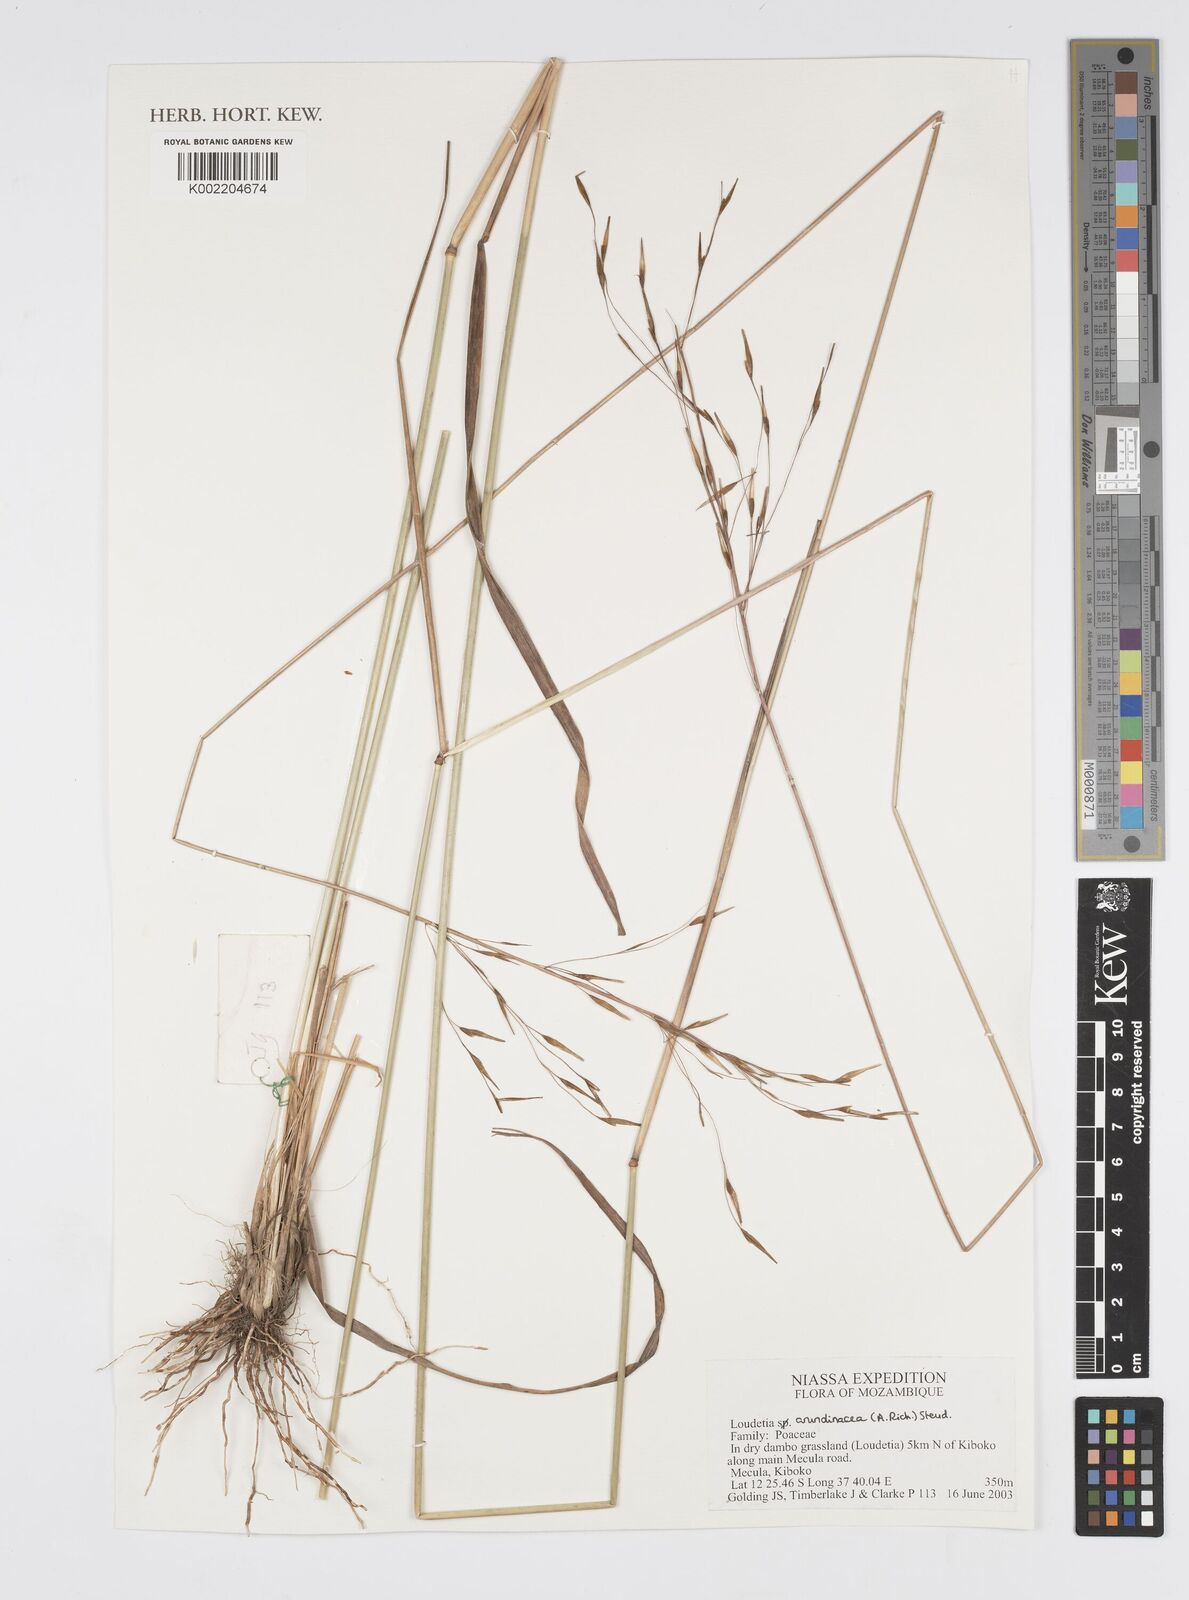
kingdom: Plantae
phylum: Tracheophyta
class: Liliopsida
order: Poales
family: Poaceae
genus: Loudetia
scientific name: Loudetia arundinacea
